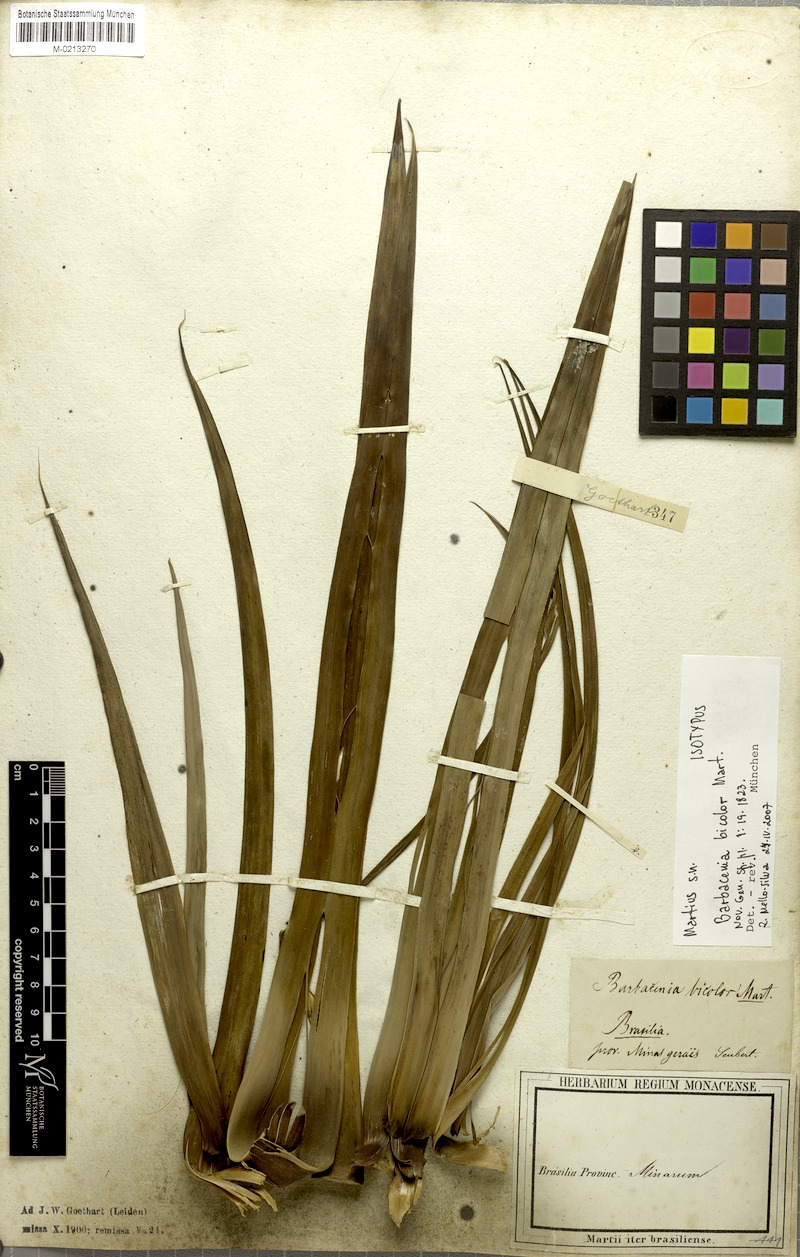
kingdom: Plantae
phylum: Tracheophyta
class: Liliopsida
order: Pandanales
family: Velloziaceae
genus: Barbacenia
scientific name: Barbacenia brasiliensis
